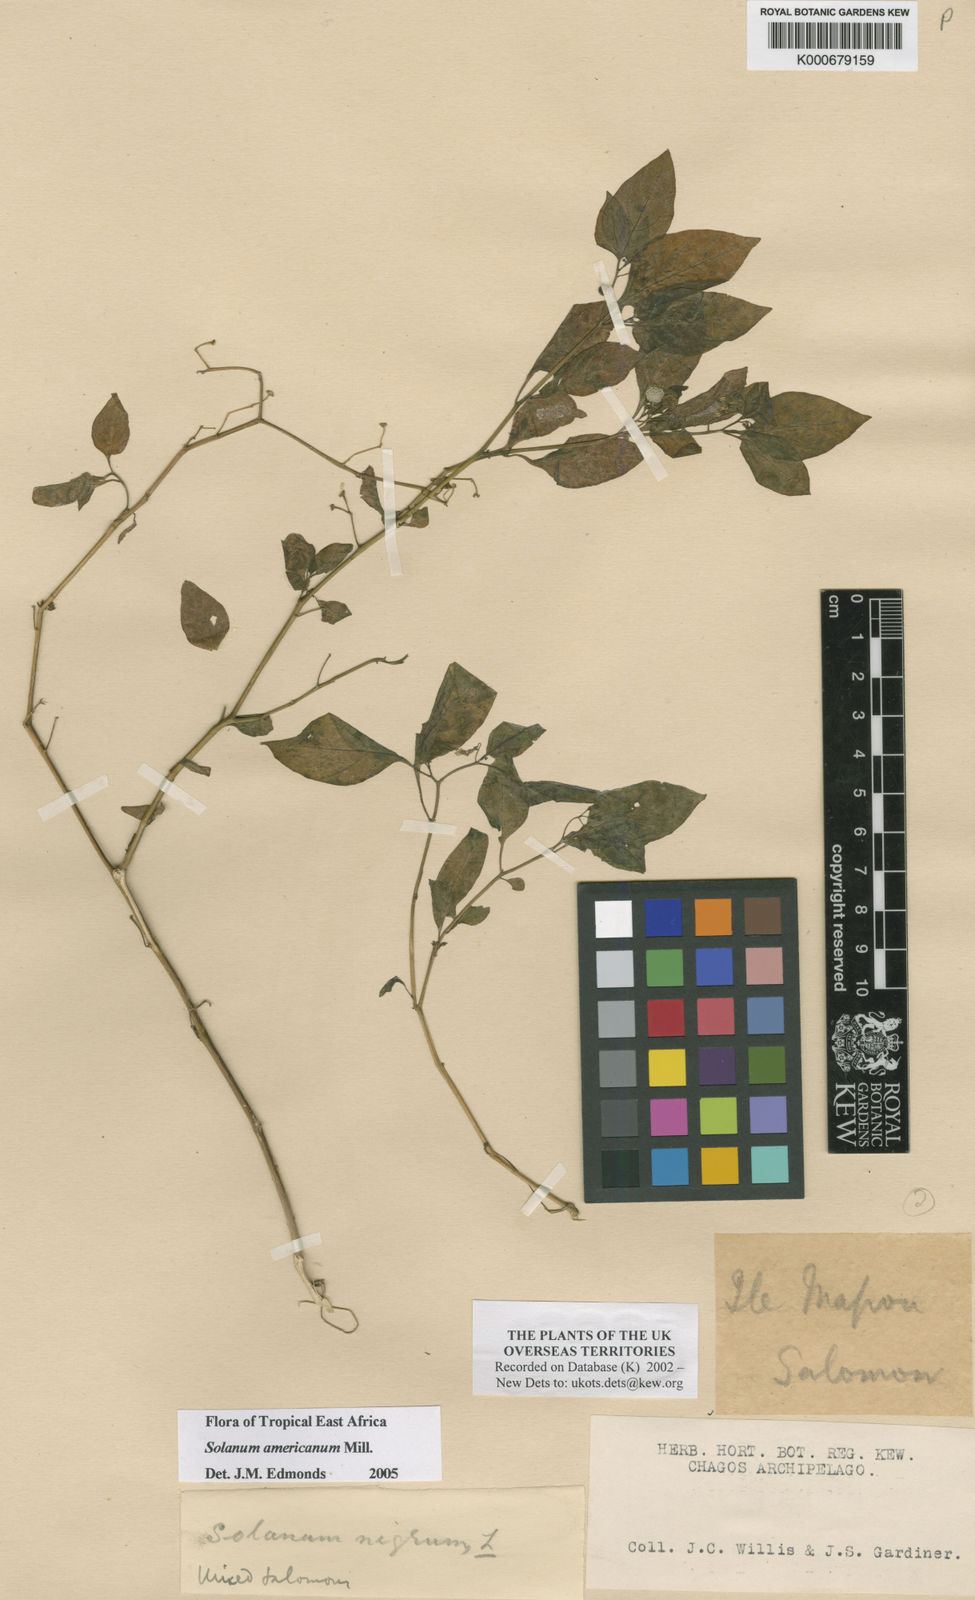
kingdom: Plantae
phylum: Tracheophyta
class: Magnoliopsida
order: Solanales
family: Solanaceae
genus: Solanum
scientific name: Solanum americanum
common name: American black nightshade
